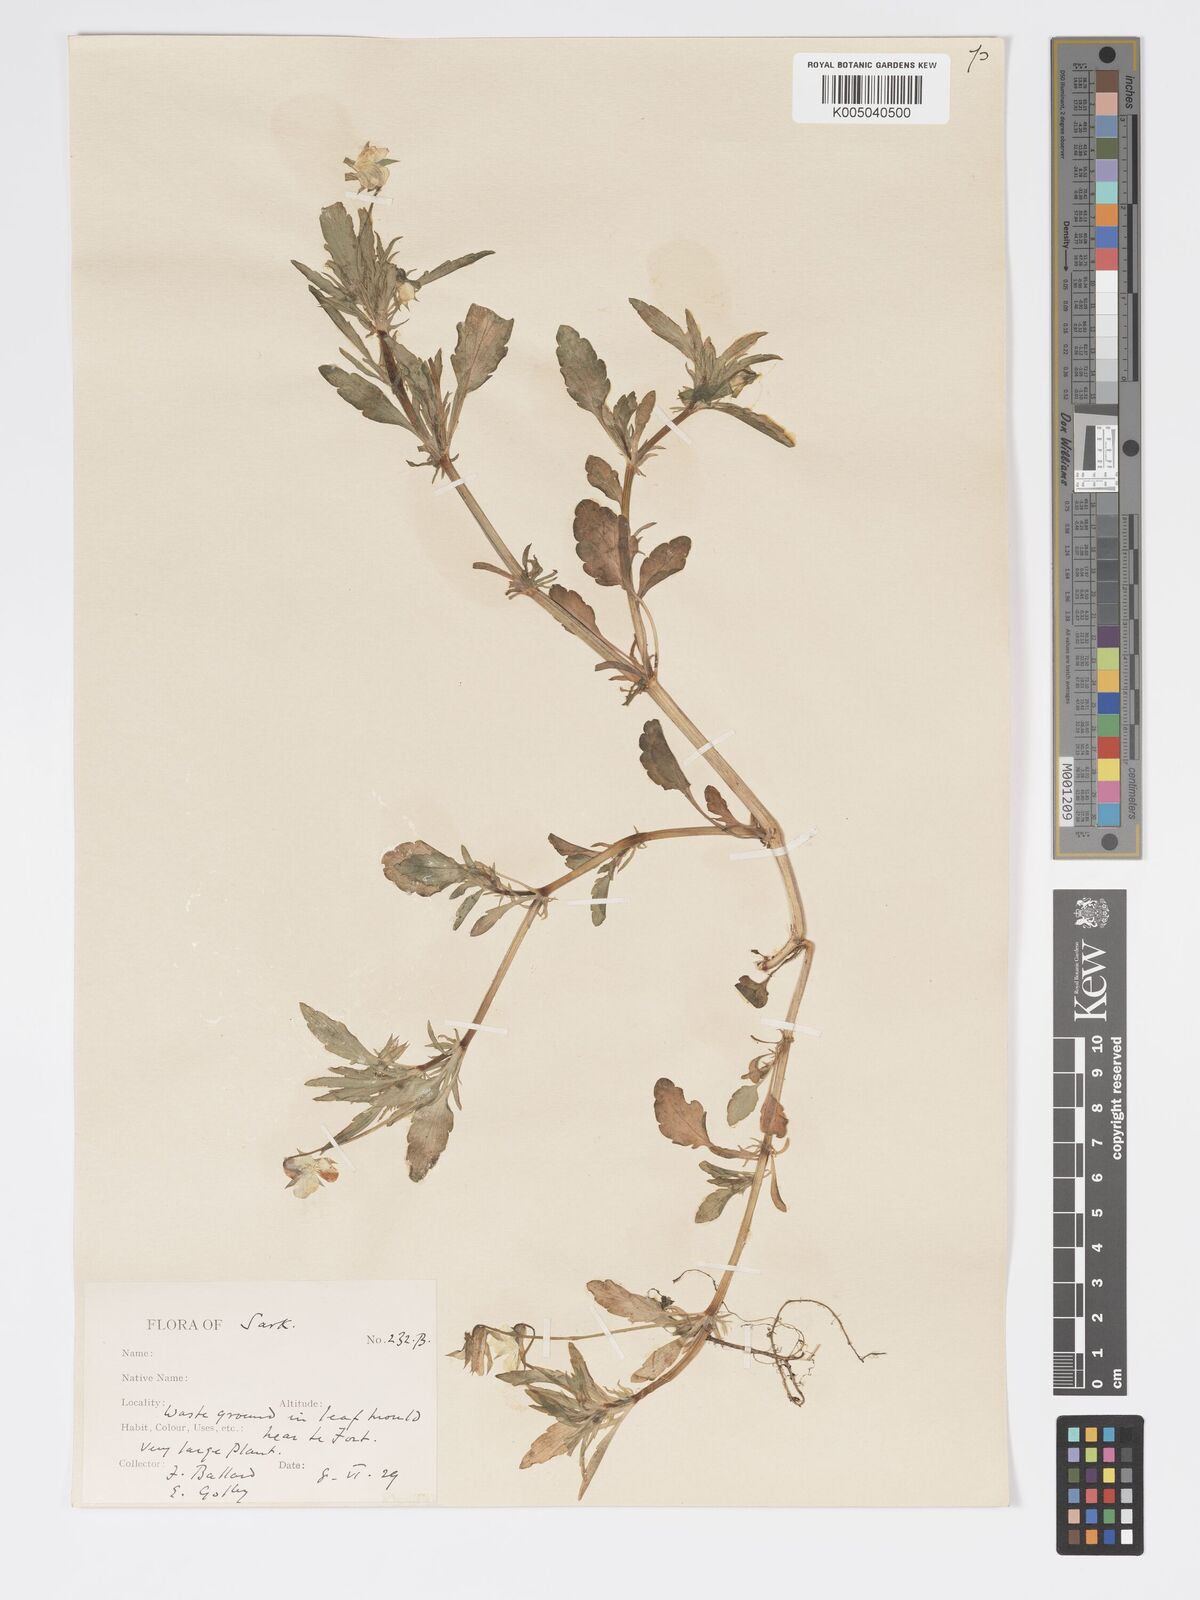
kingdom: Plantae
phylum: Tracheophyta
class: Magnoliopsida
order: Malpighiales
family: Violaceae
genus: Viola
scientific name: Viola arvensis
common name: Field pansy
